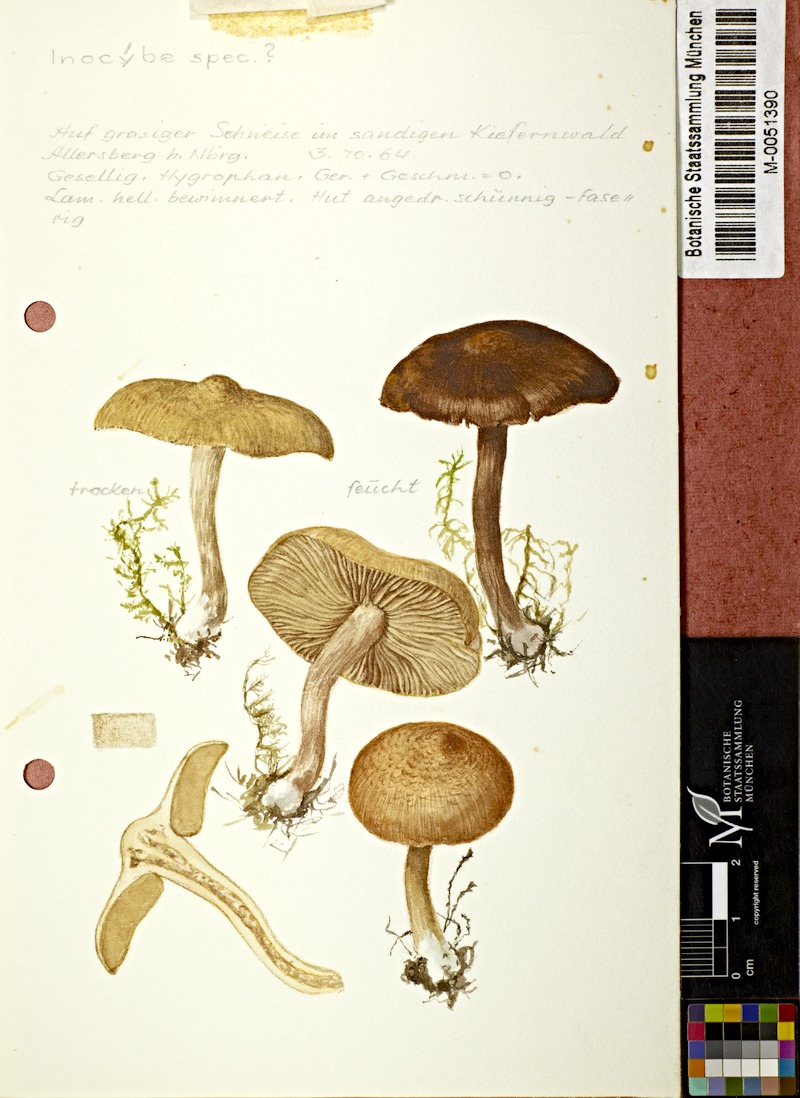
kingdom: Fungi
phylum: Basidiomycota
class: Agaricomycetes
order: Agaricales
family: Cortinariaceae
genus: Cortinarius
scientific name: Cortinarius
